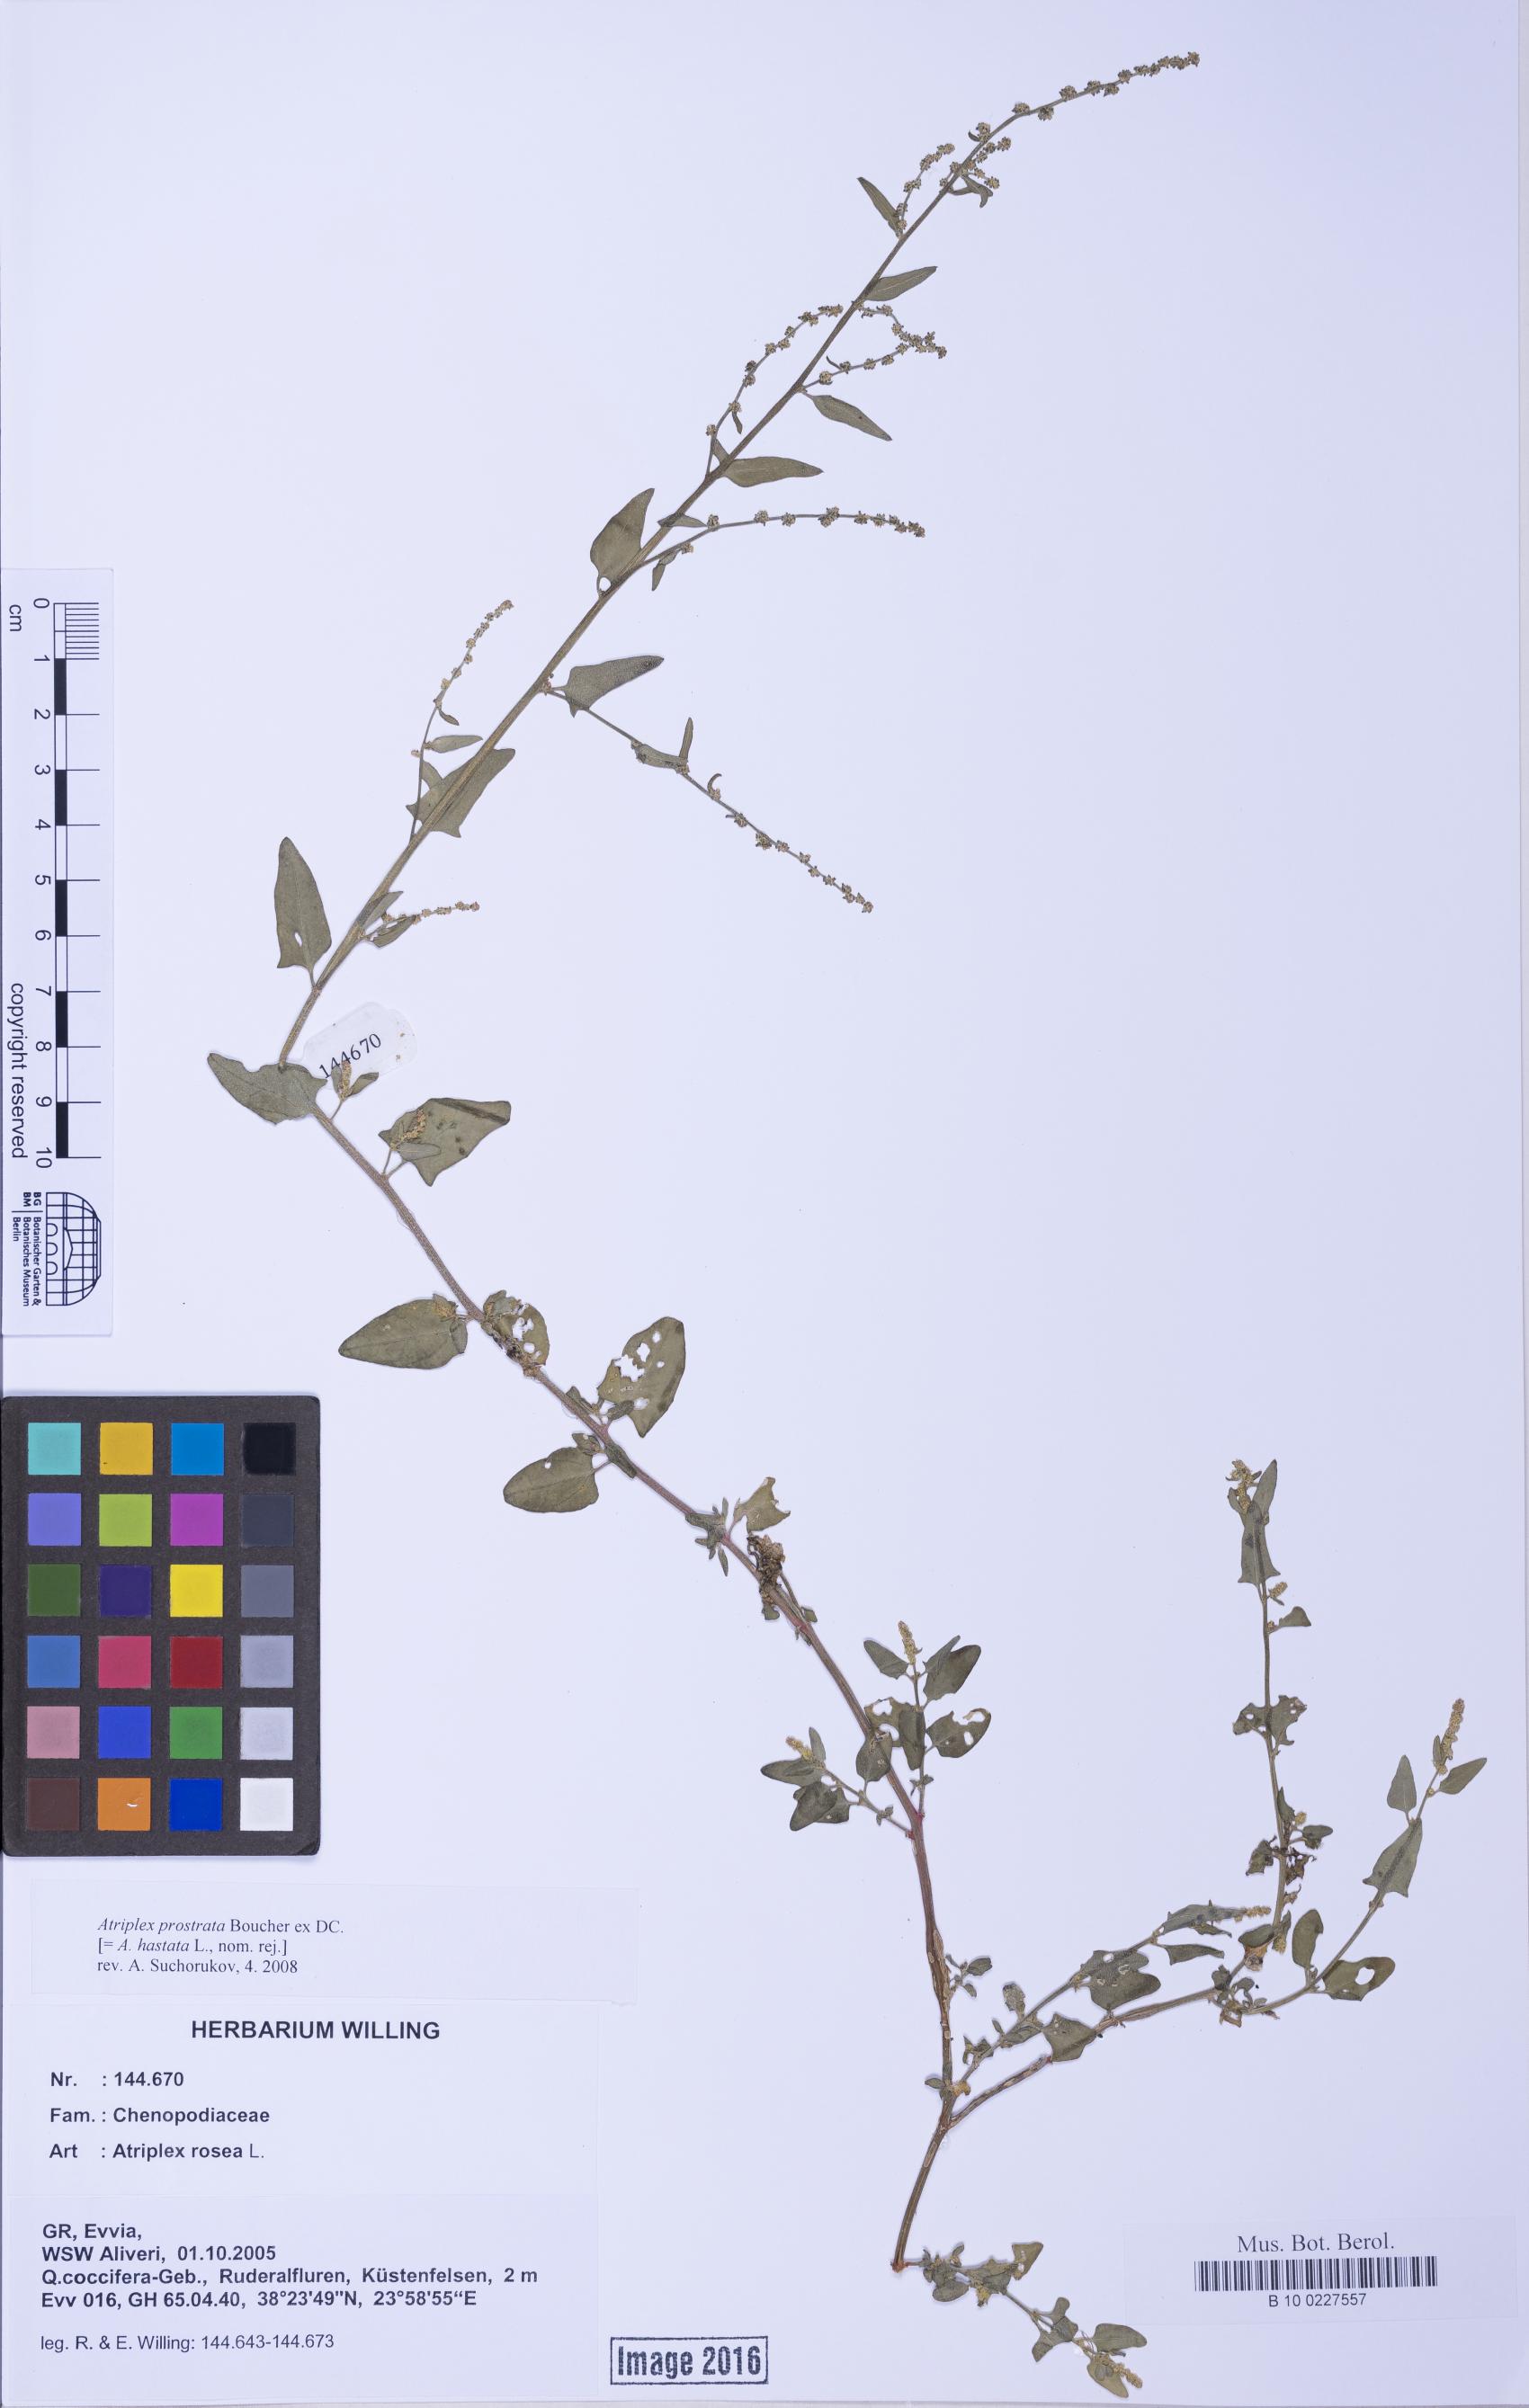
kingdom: Plantae
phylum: Tracheophyta
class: Magnoliopsida
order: Caryophyllales
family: Amaranthaceae
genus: Atriplex
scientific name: Atriplex prostrata
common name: Spear-leaved orache
